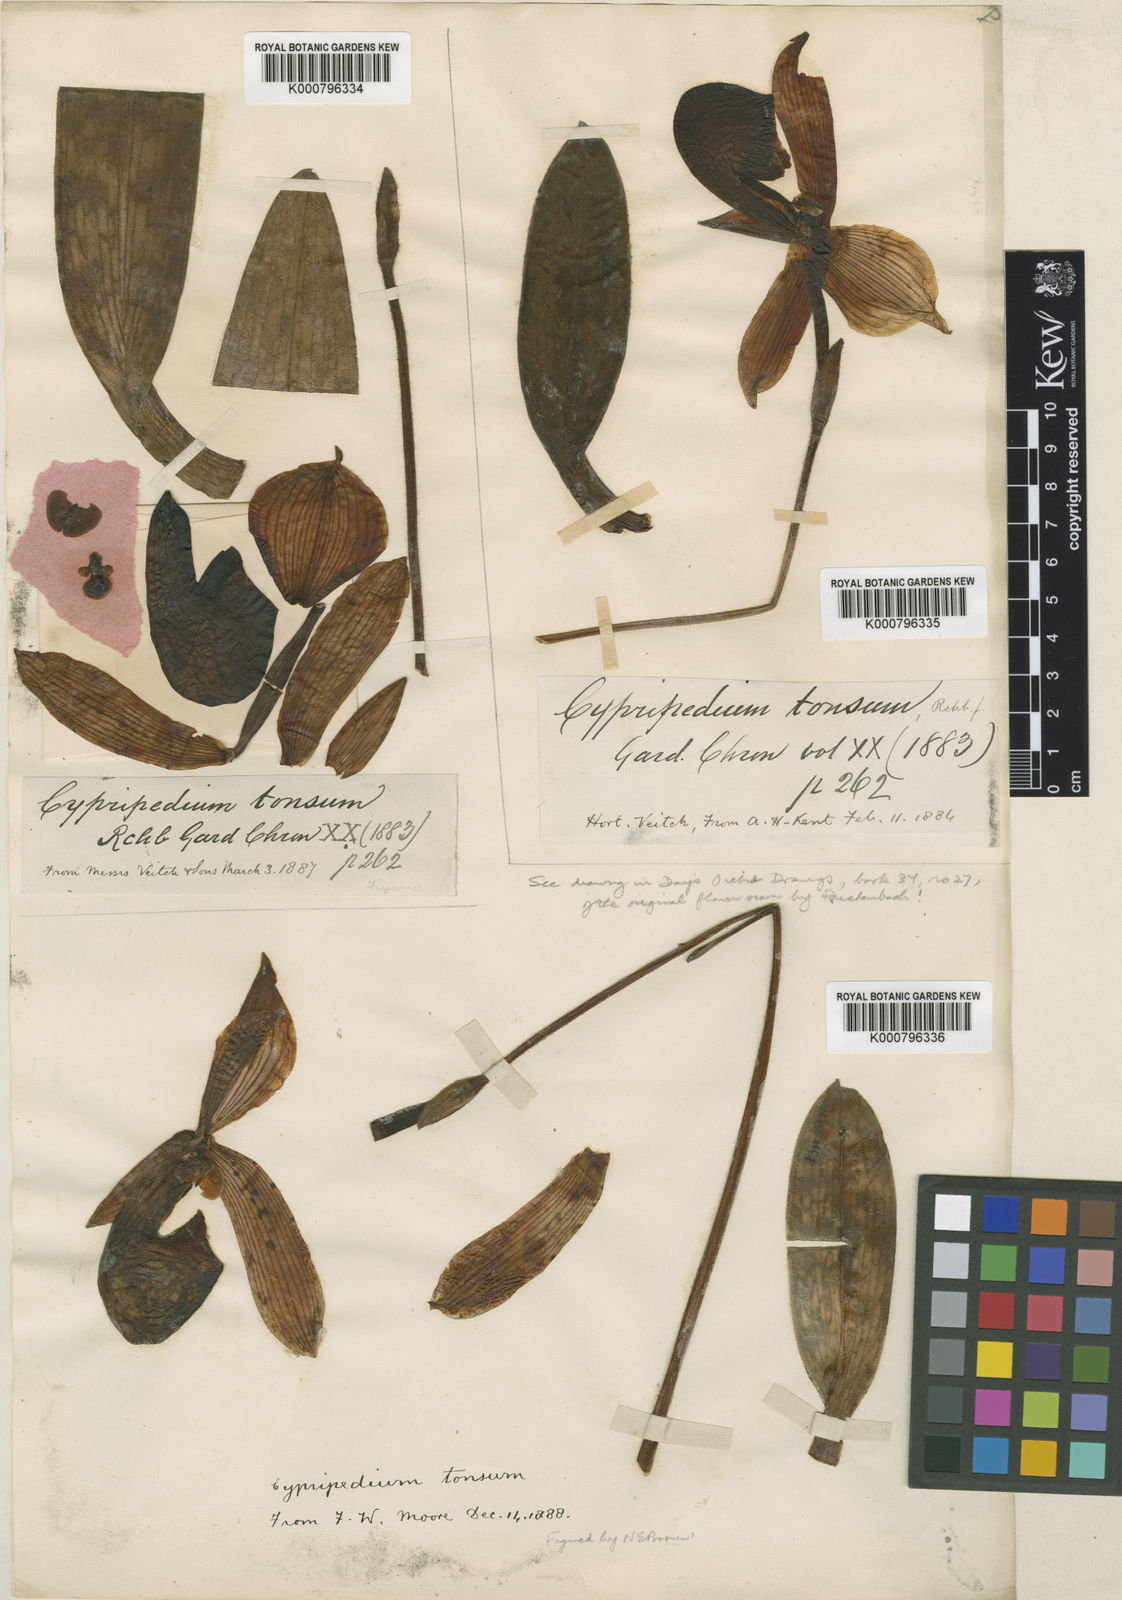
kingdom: Plantae
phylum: Tracheophyta
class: Liliopsida
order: Asparagales
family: Orchidaceae
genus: Paphiopedilum
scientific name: Paphiopedilum tonsum
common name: Bald paphiopedilum
